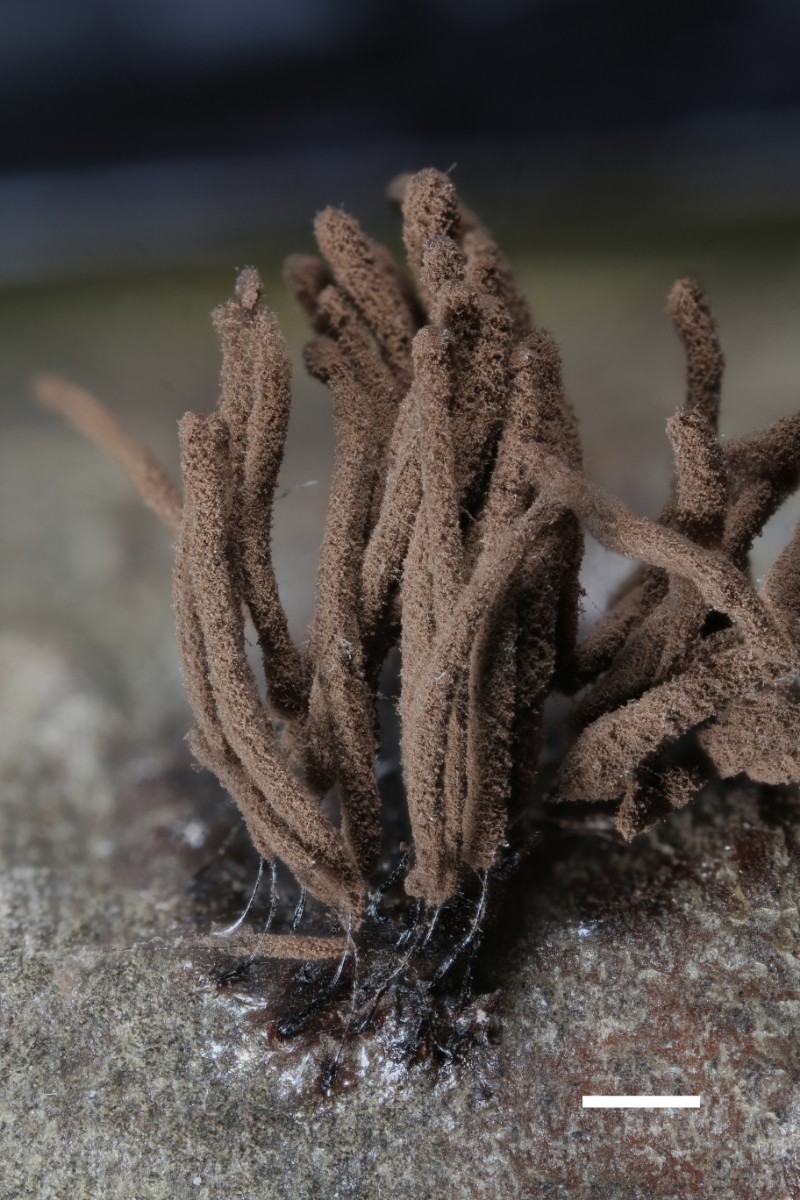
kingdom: Protozoa
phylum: Mycetozoa
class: Myxomycetes
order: Stemonitidales
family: Stemonitidaceae
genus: Stemonitis
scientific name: Stemonitis axifera
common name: rødbrun støvkølle
